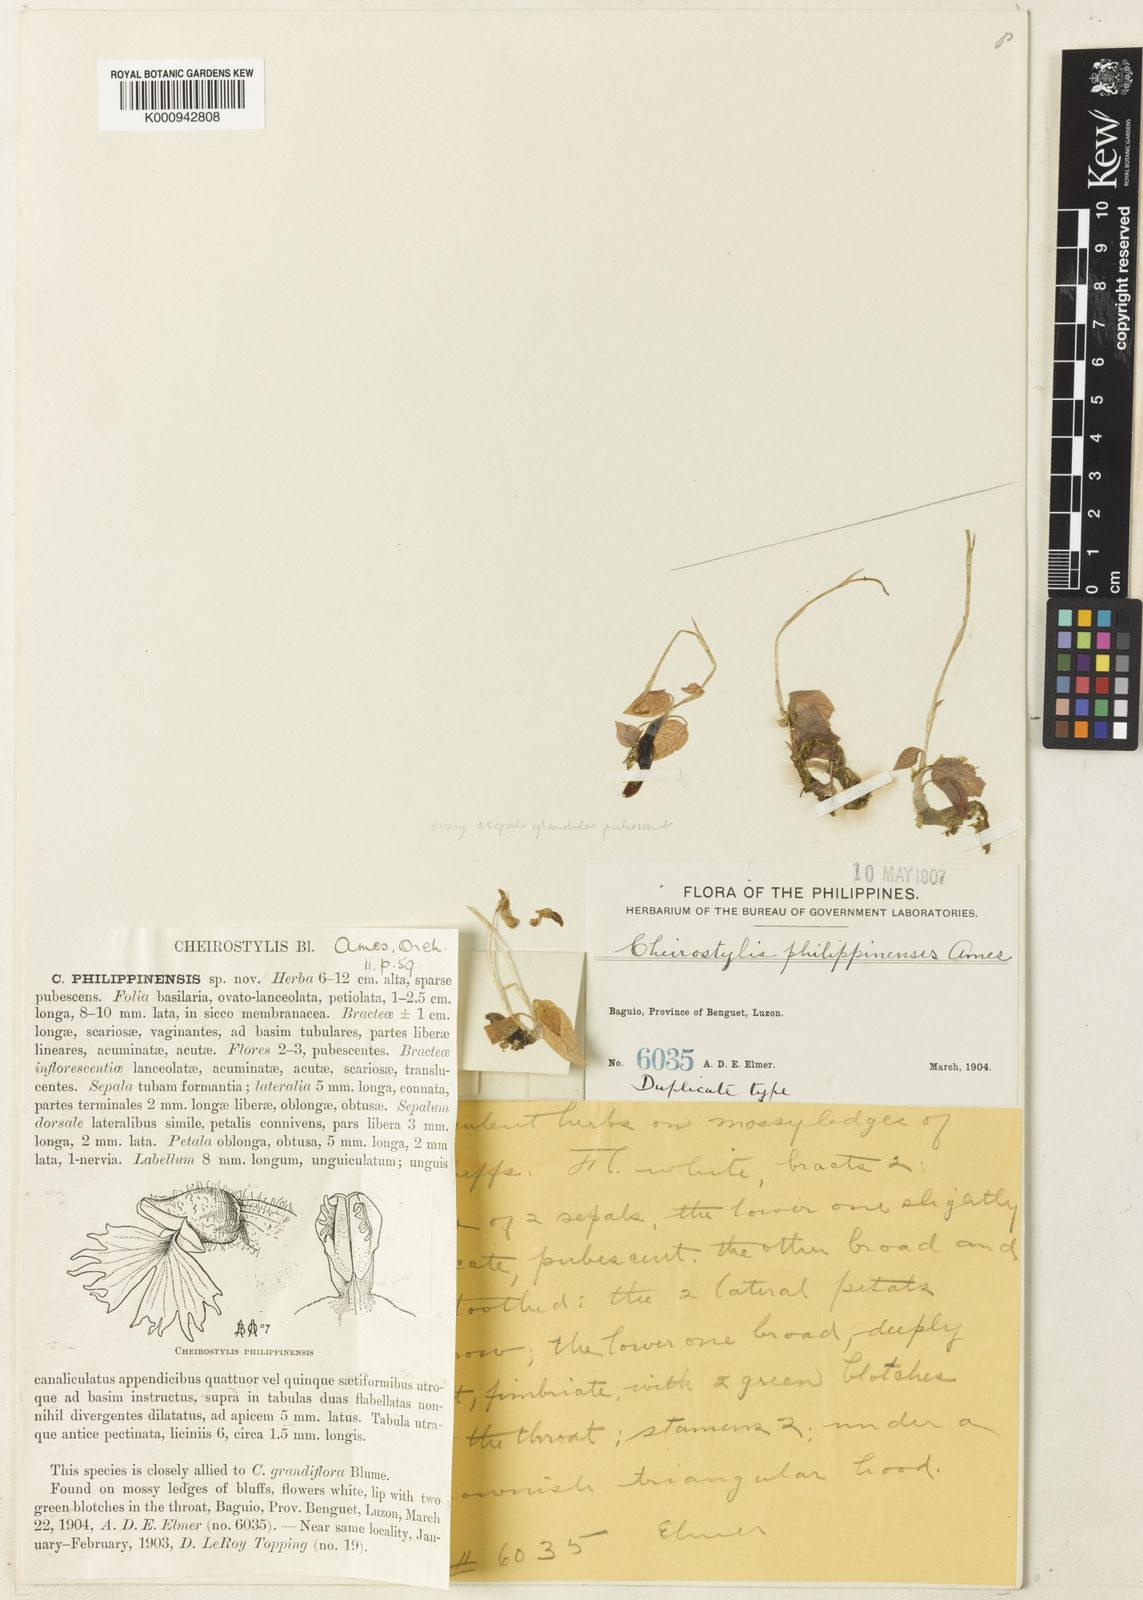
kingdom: Plantae
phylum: Tracheophyta
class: Liliopsida
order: Asparagales
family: Orchidaceae
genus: Cheirostylis
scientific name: Cheirostylis chinensis
